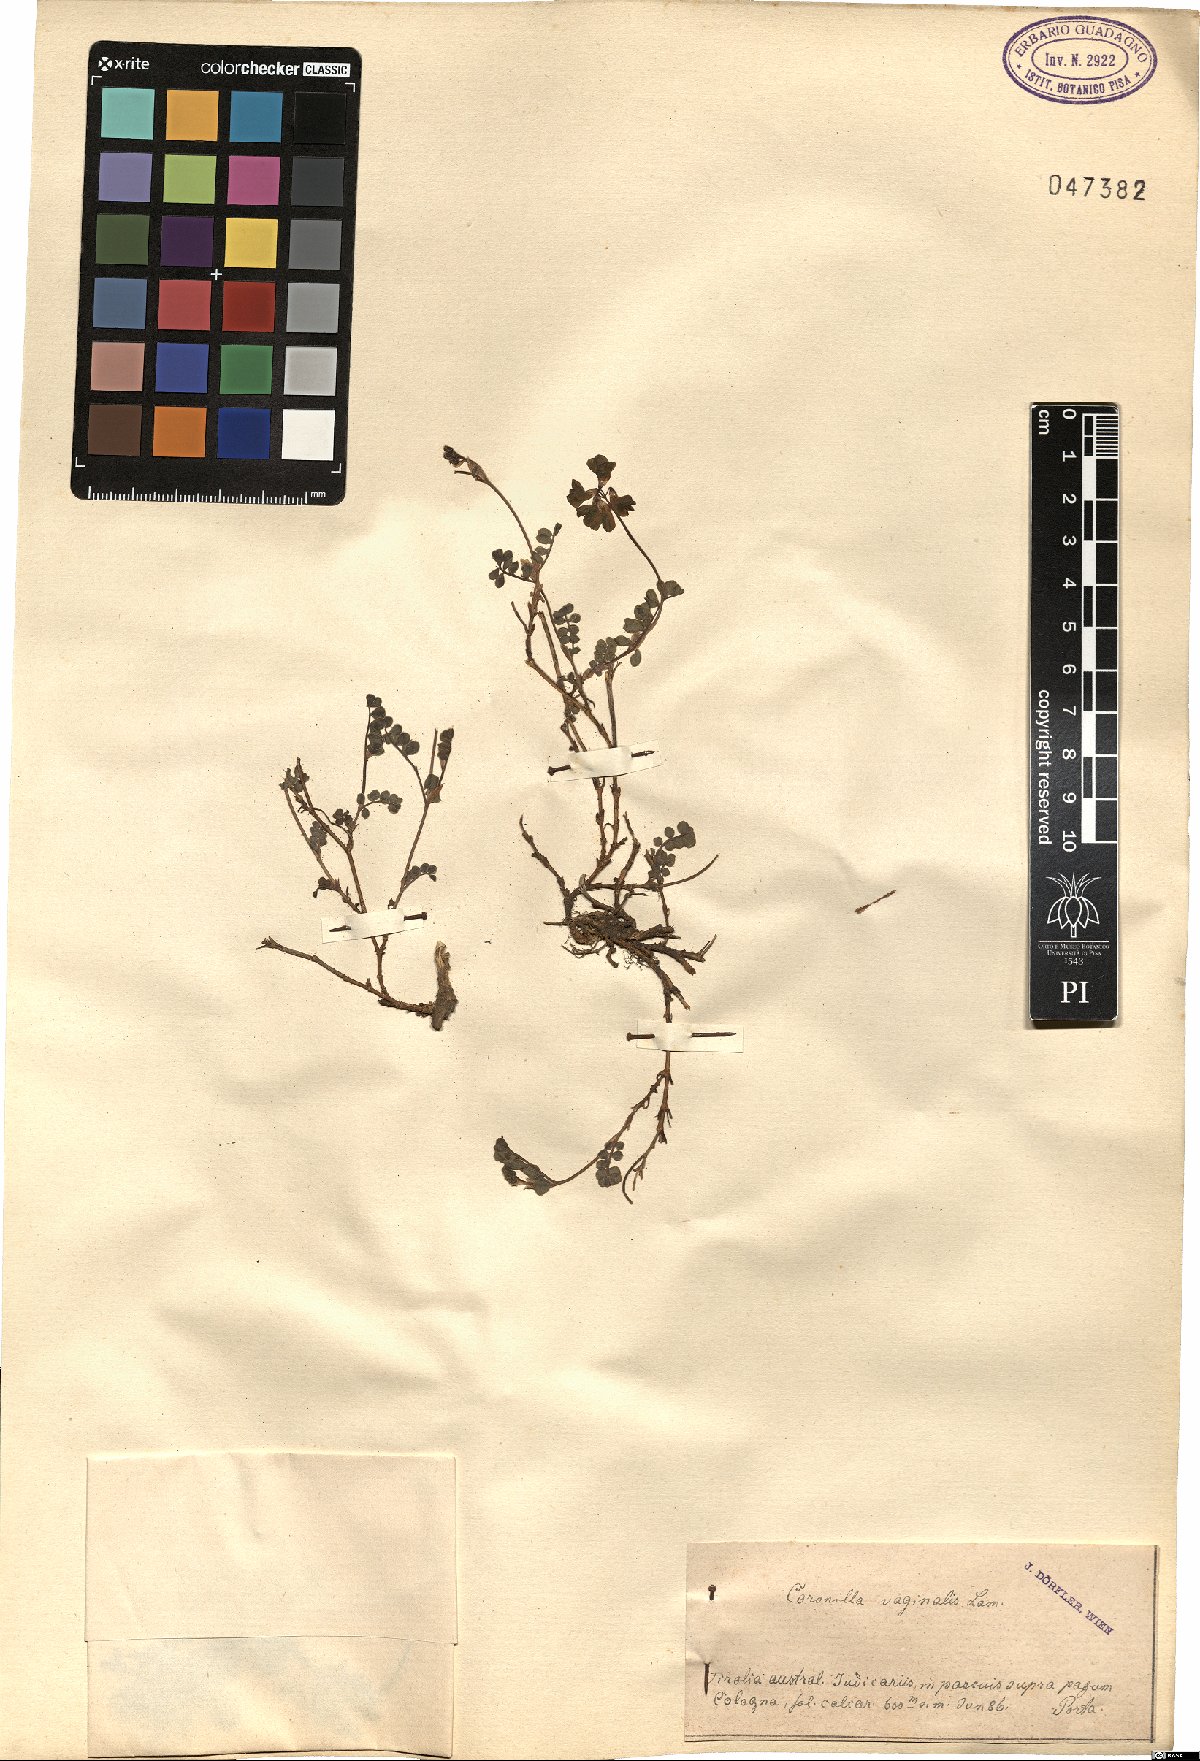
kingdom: Plantae
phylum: Tracheophyta
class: Magnoliopsida
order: Fabales
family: Fabaceae
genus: Coronilla
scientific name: Coronilla vaginalis
